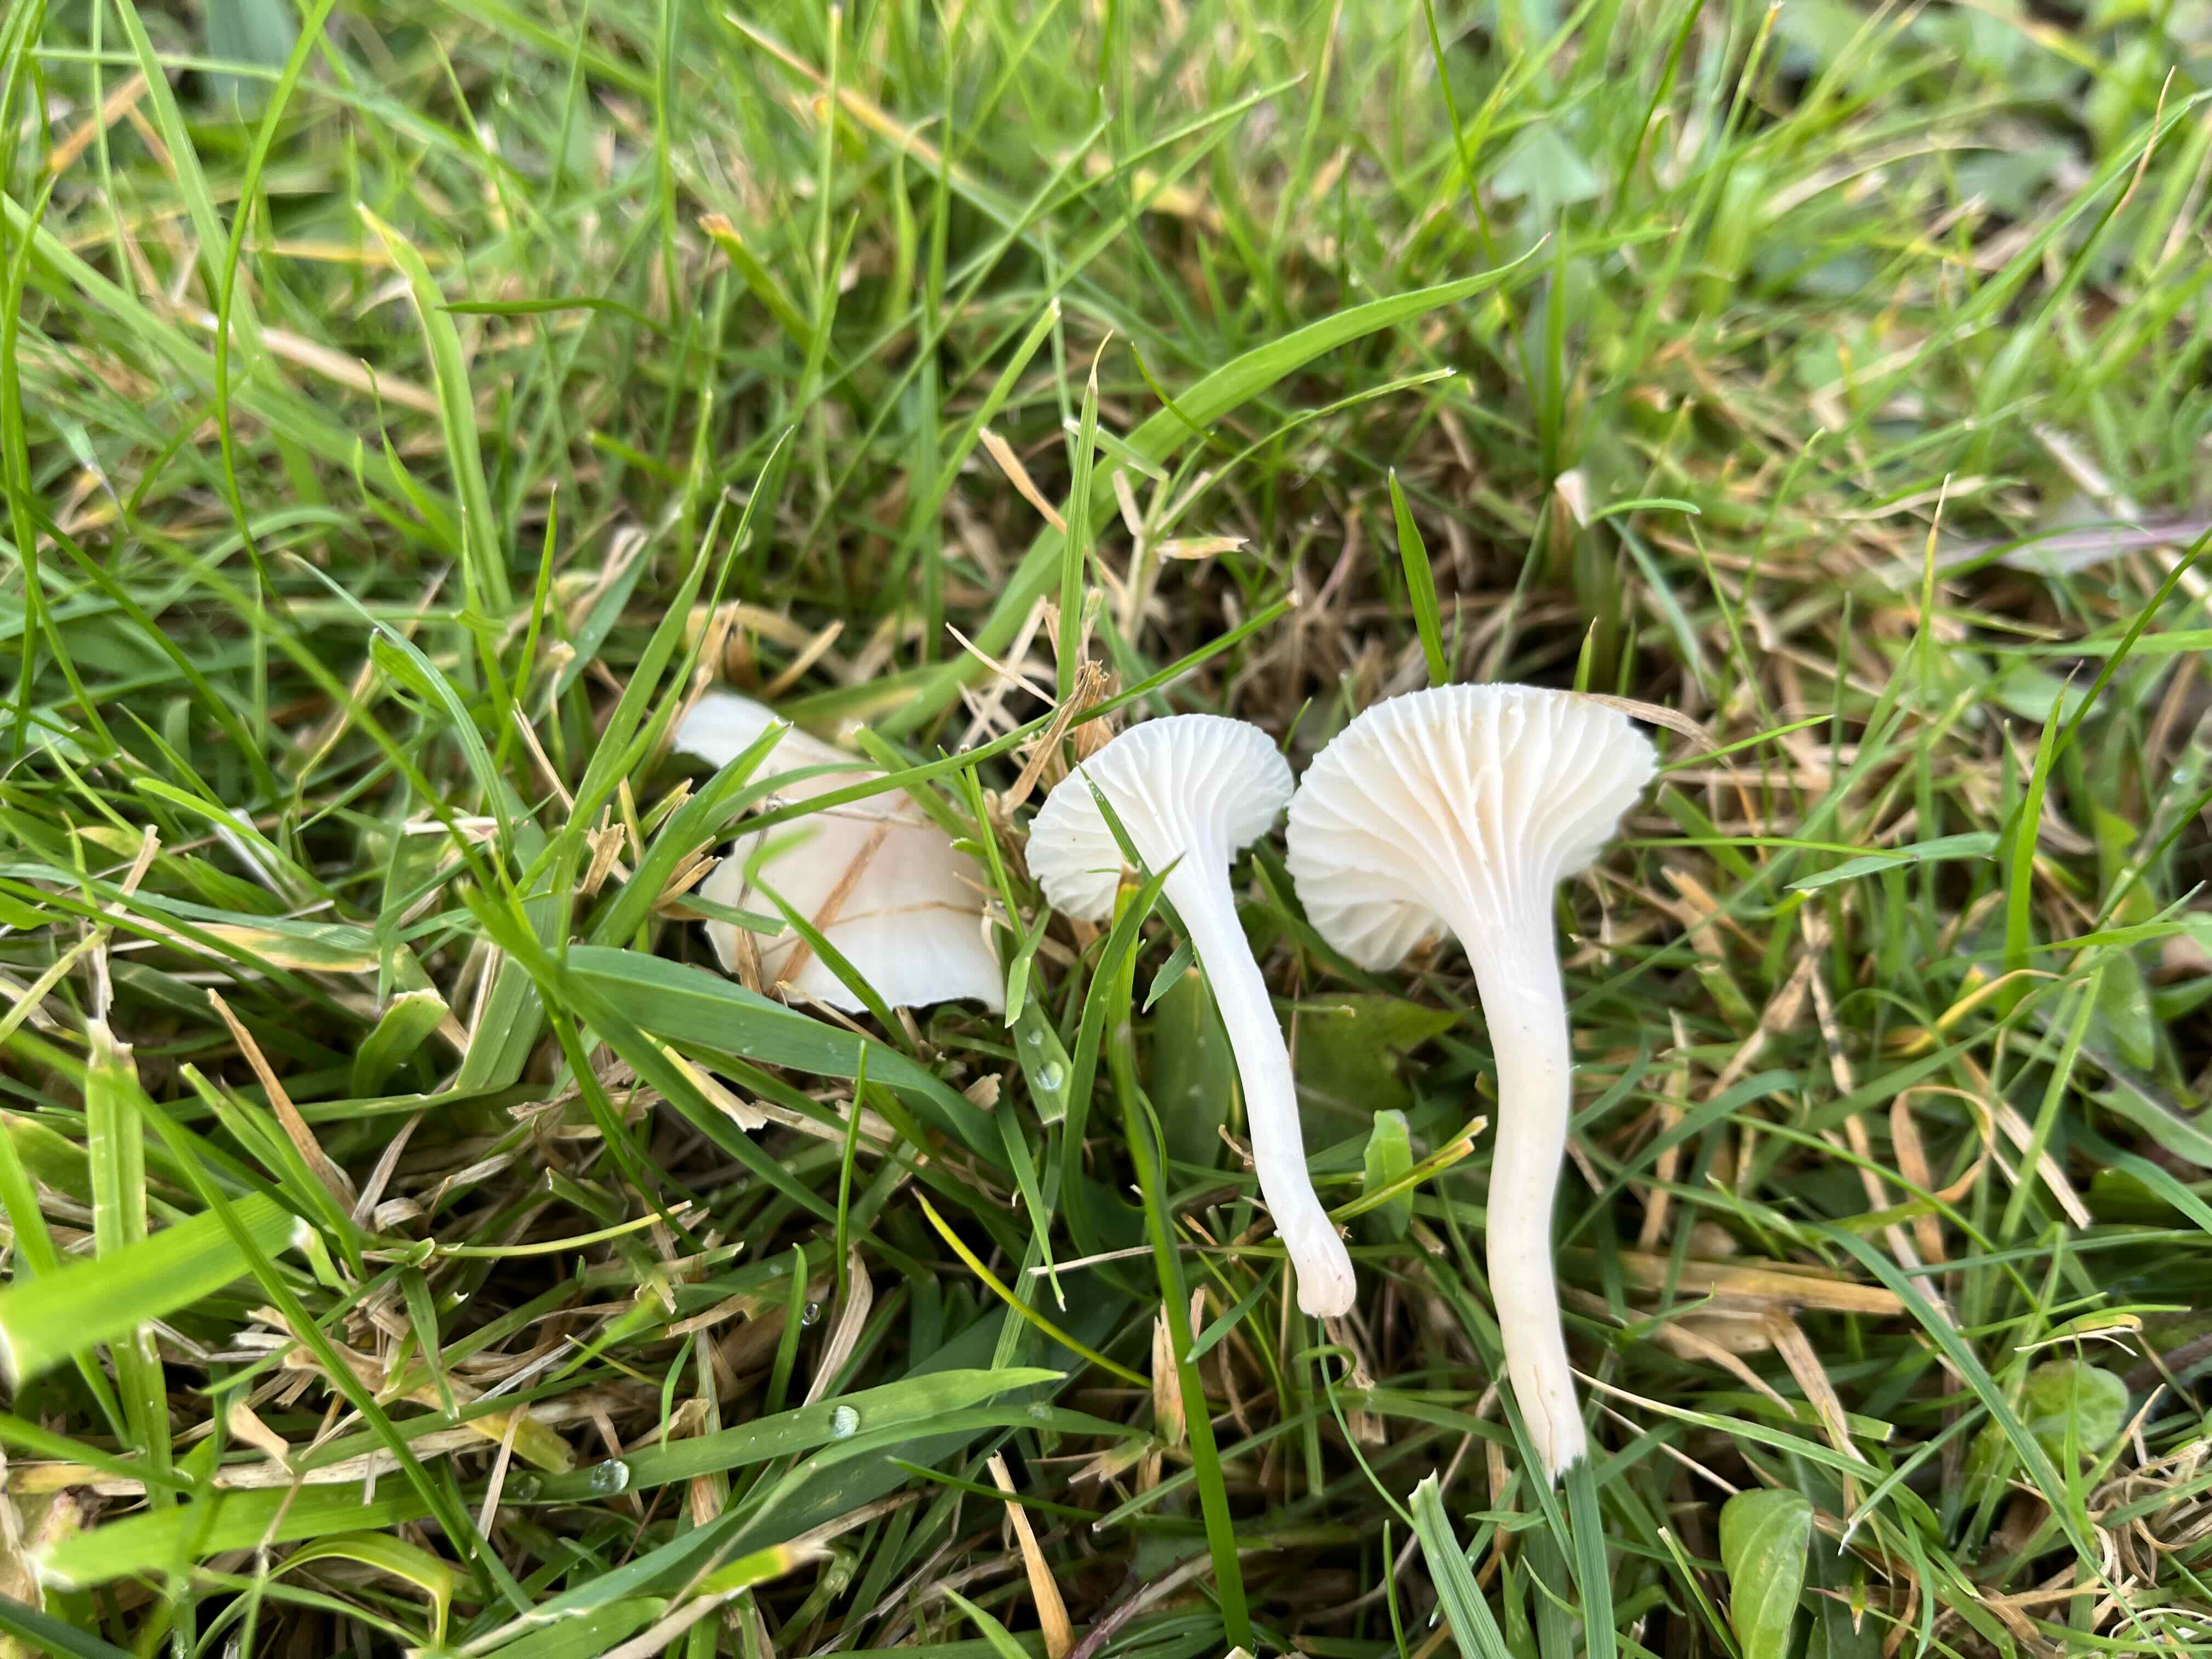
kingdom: Fungi
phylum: Basidiomycota
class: Agaricomycetes
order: Agaricales
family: Hygrophoraceae
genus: Cuphophyllus
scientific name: Cuphophyllus virgineus
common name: snehvid vokshat
